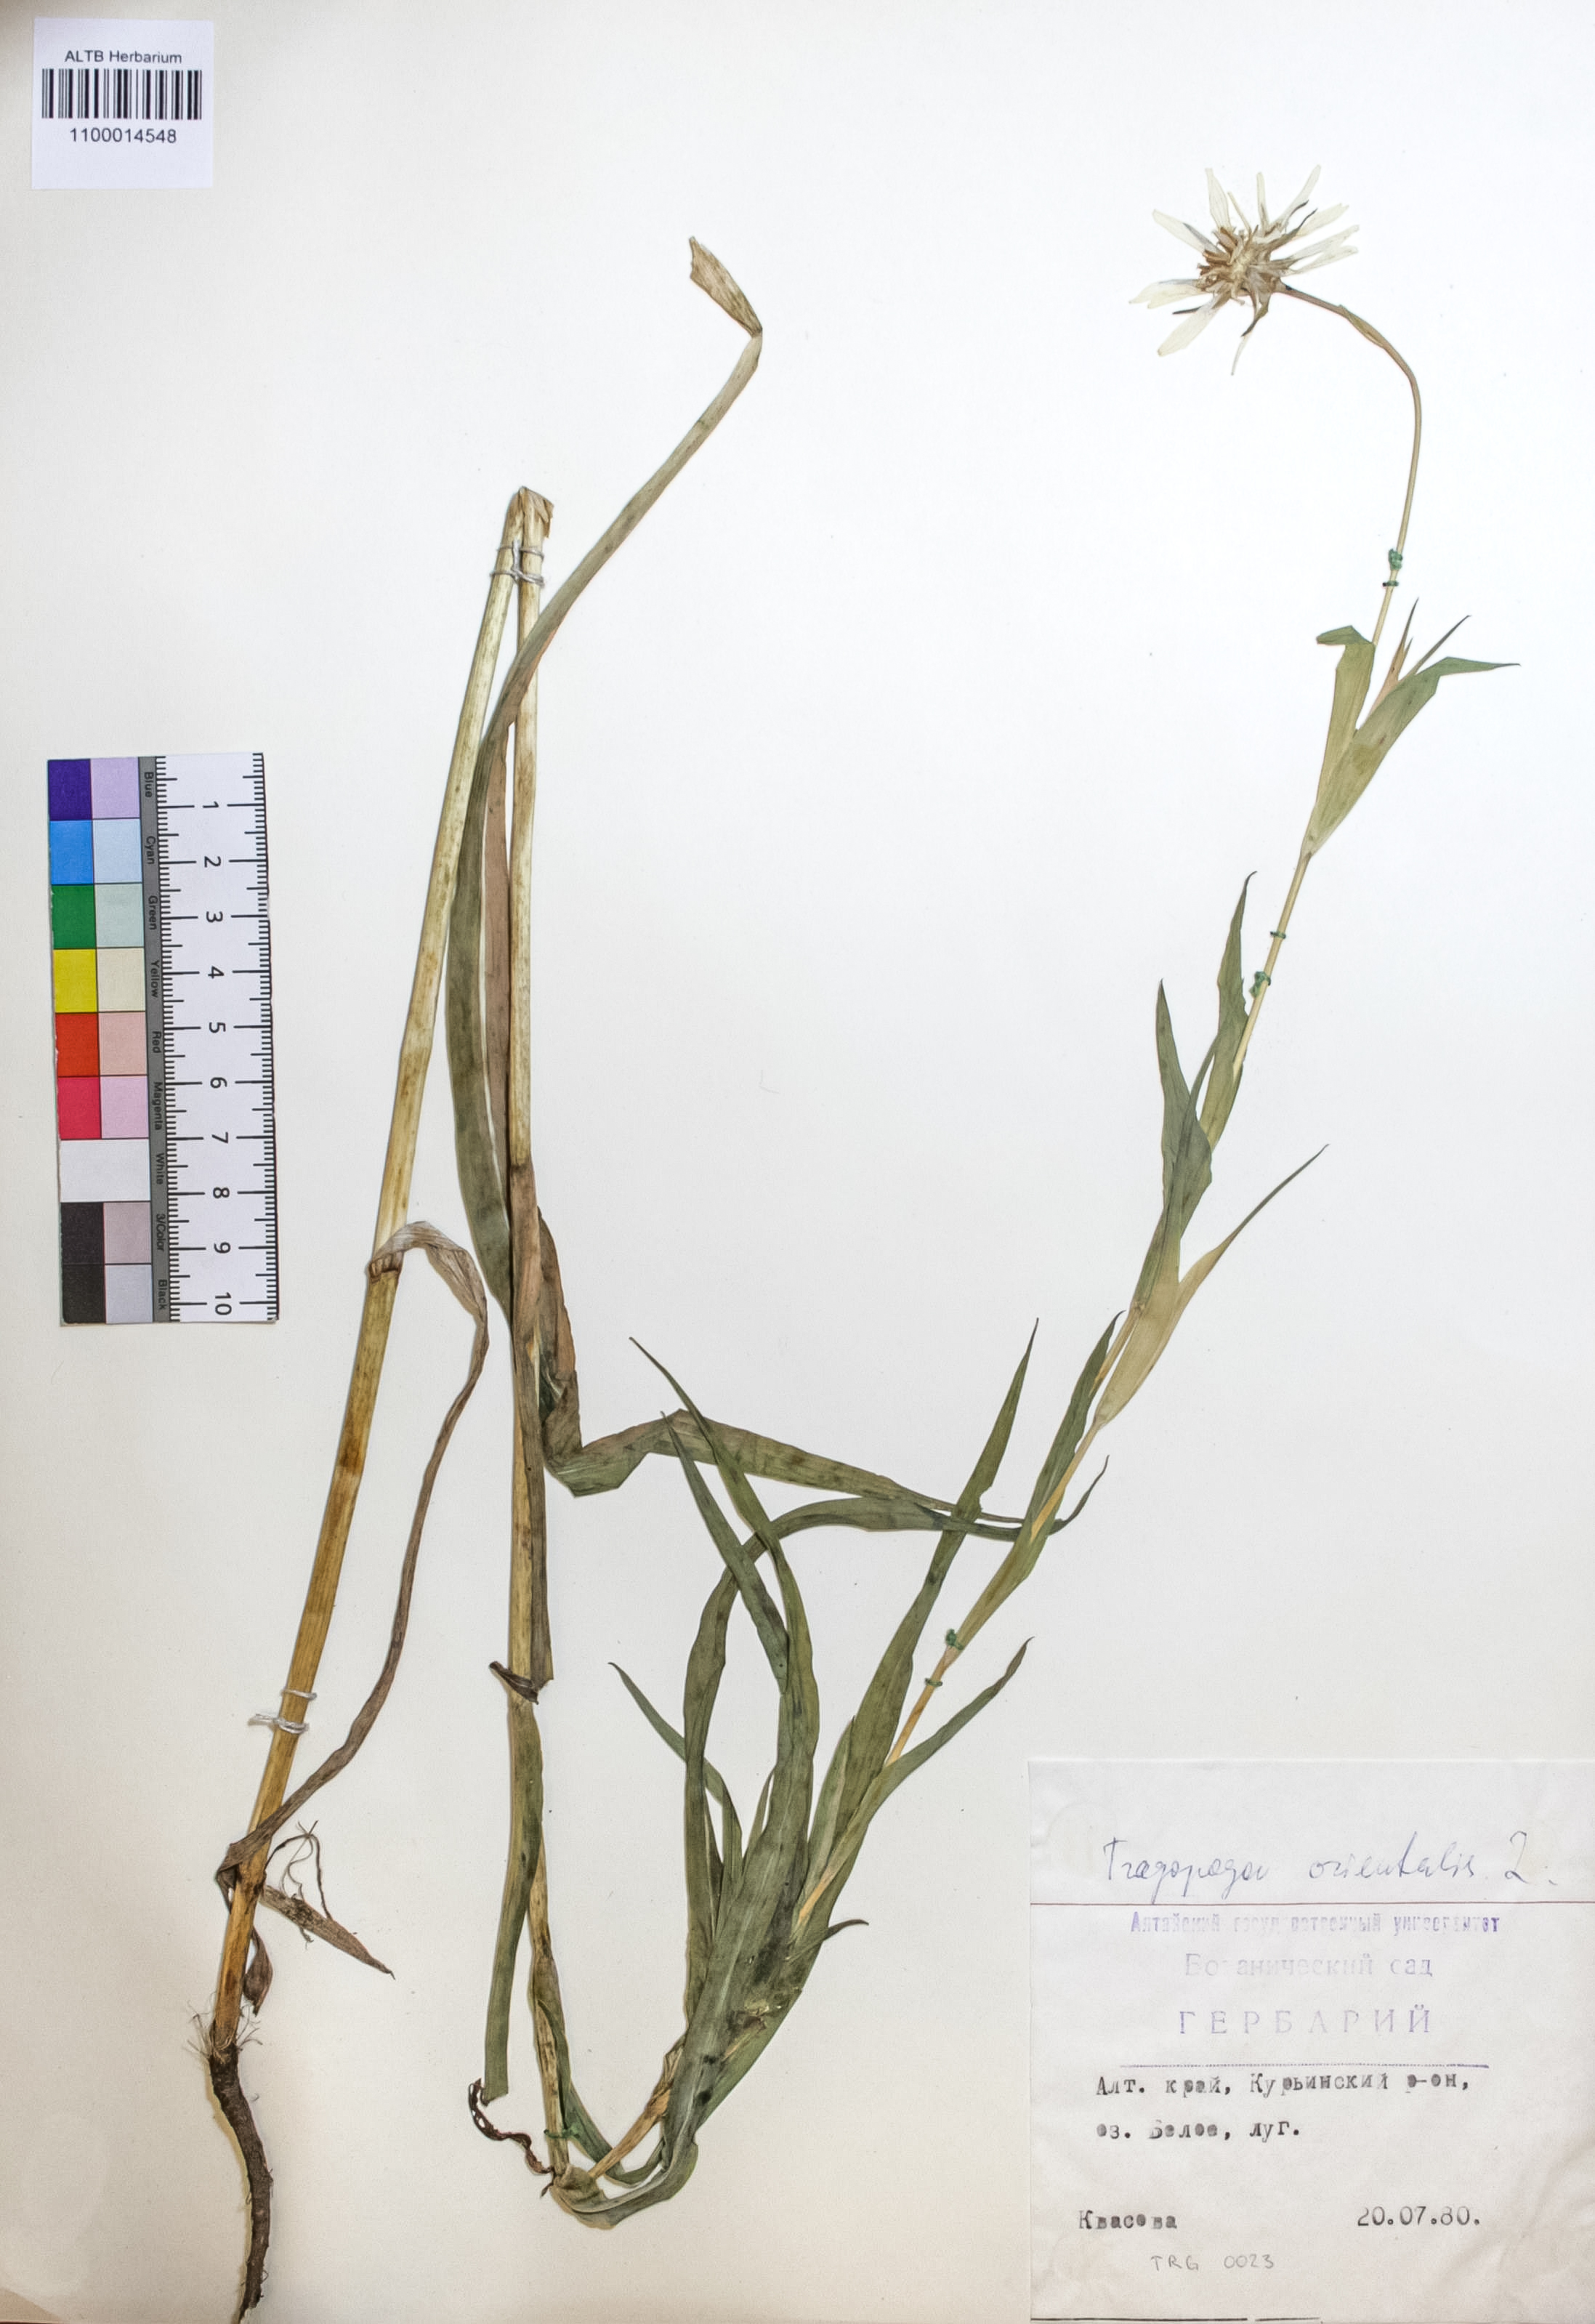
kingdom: Plantae
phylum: Tracheophyta
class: Magnoliopsida
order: Asterales
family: Asteraceae
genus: Tragopogon
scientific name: Tragopogon orientalis
